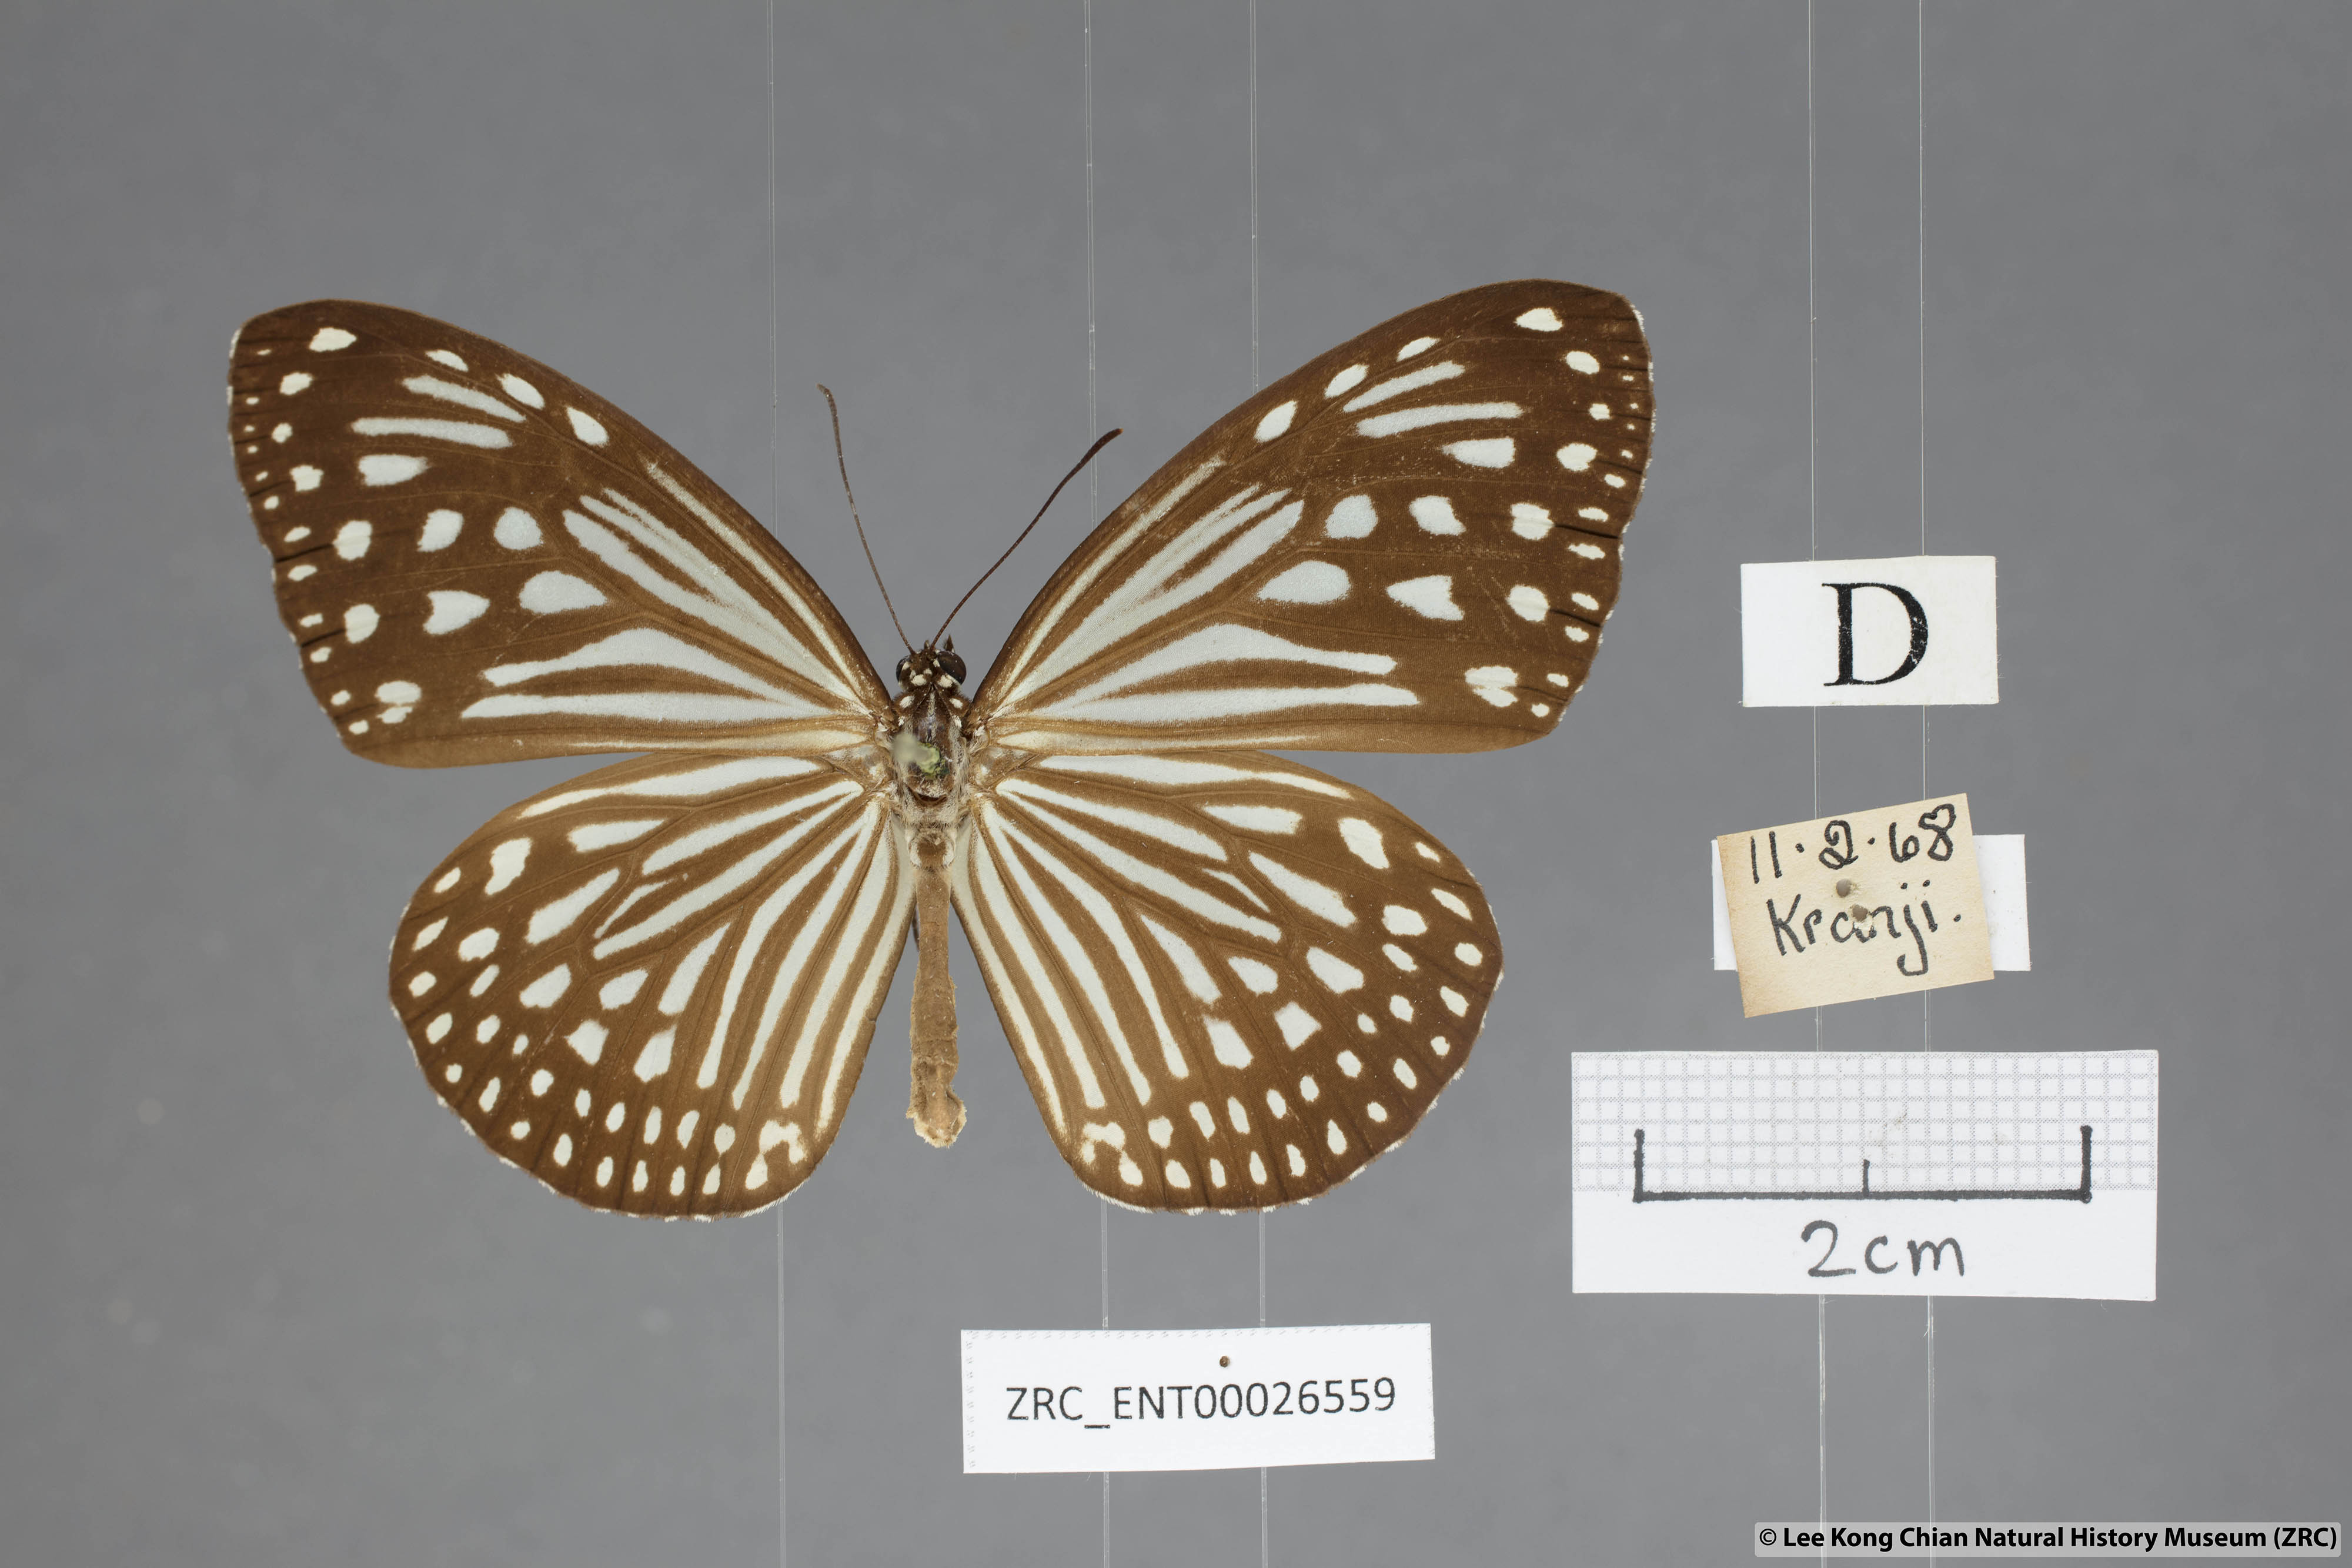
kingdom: Animalia
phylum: Arthropoda
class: Insecta
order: Lepidoptera
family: Nymphalidae
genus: Parantica
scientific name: Parantica agleoides
